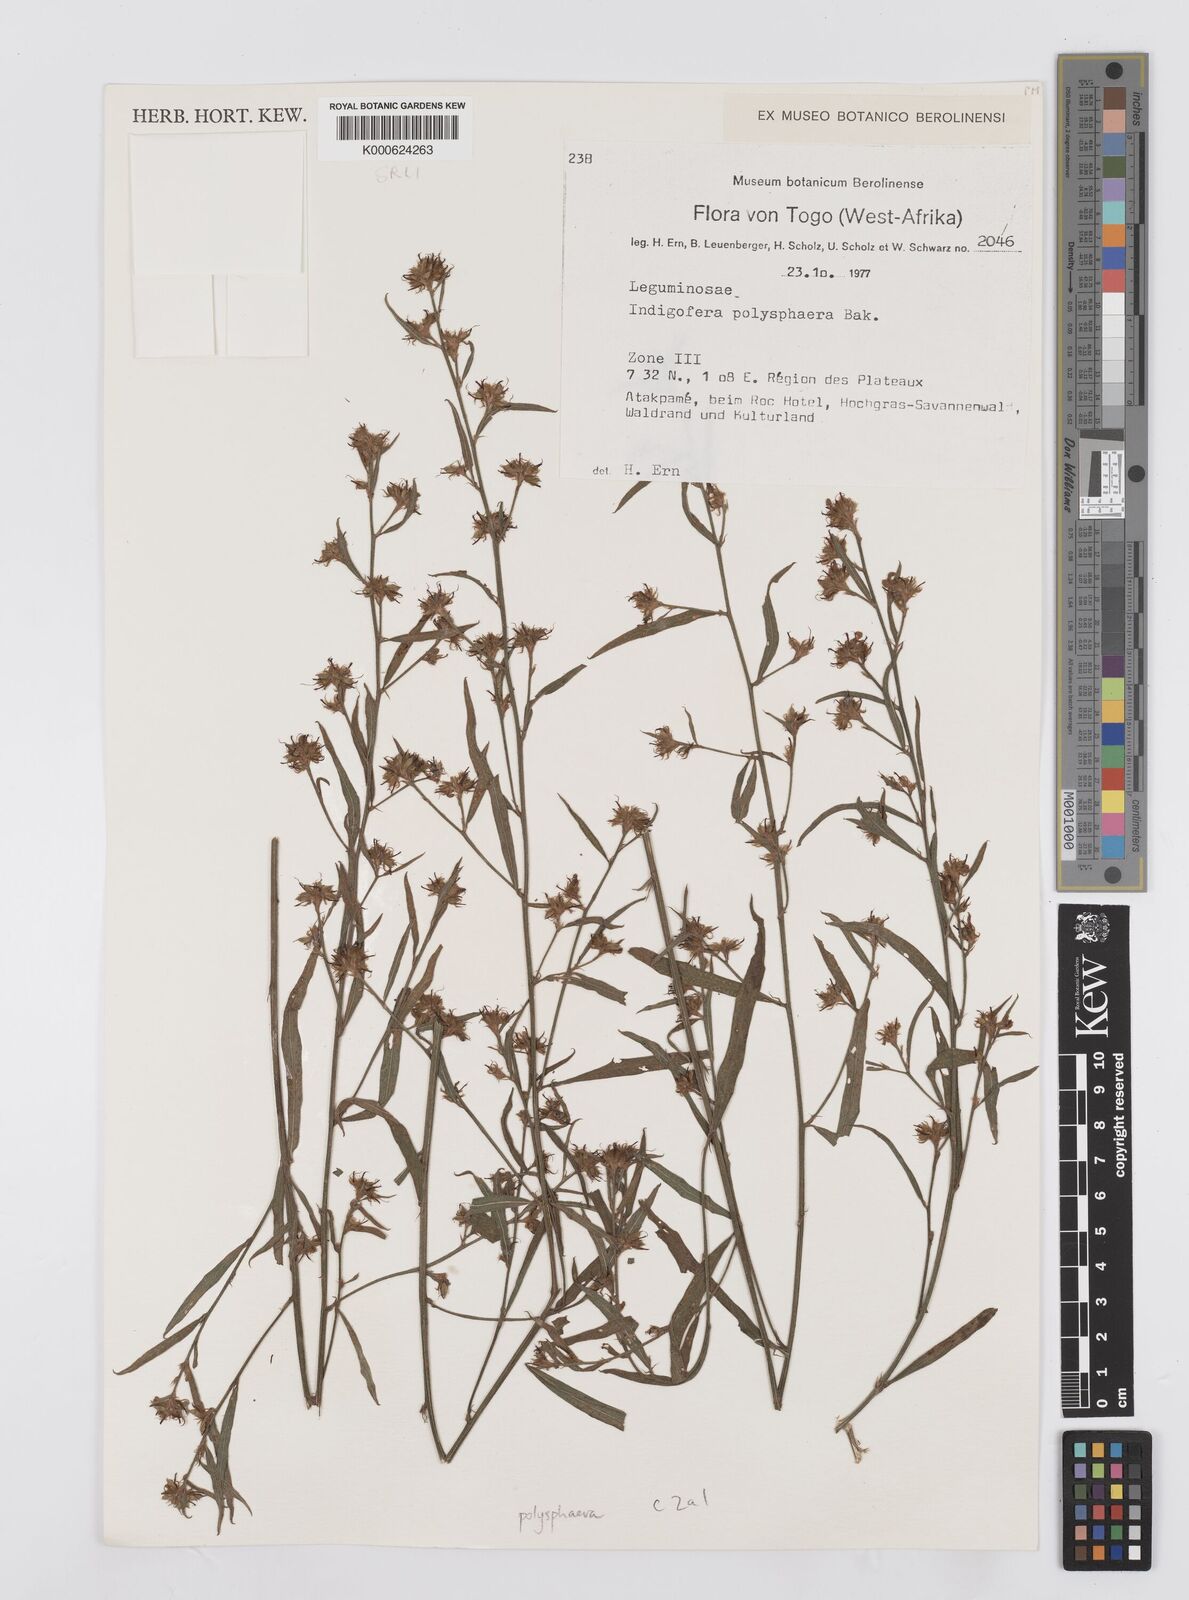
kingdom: Plantae
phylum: Tracheophyta
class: Magnoliopsida
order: Fabales
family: Fabaceae
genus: Indigofera
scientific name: Indigofera polysphaera
